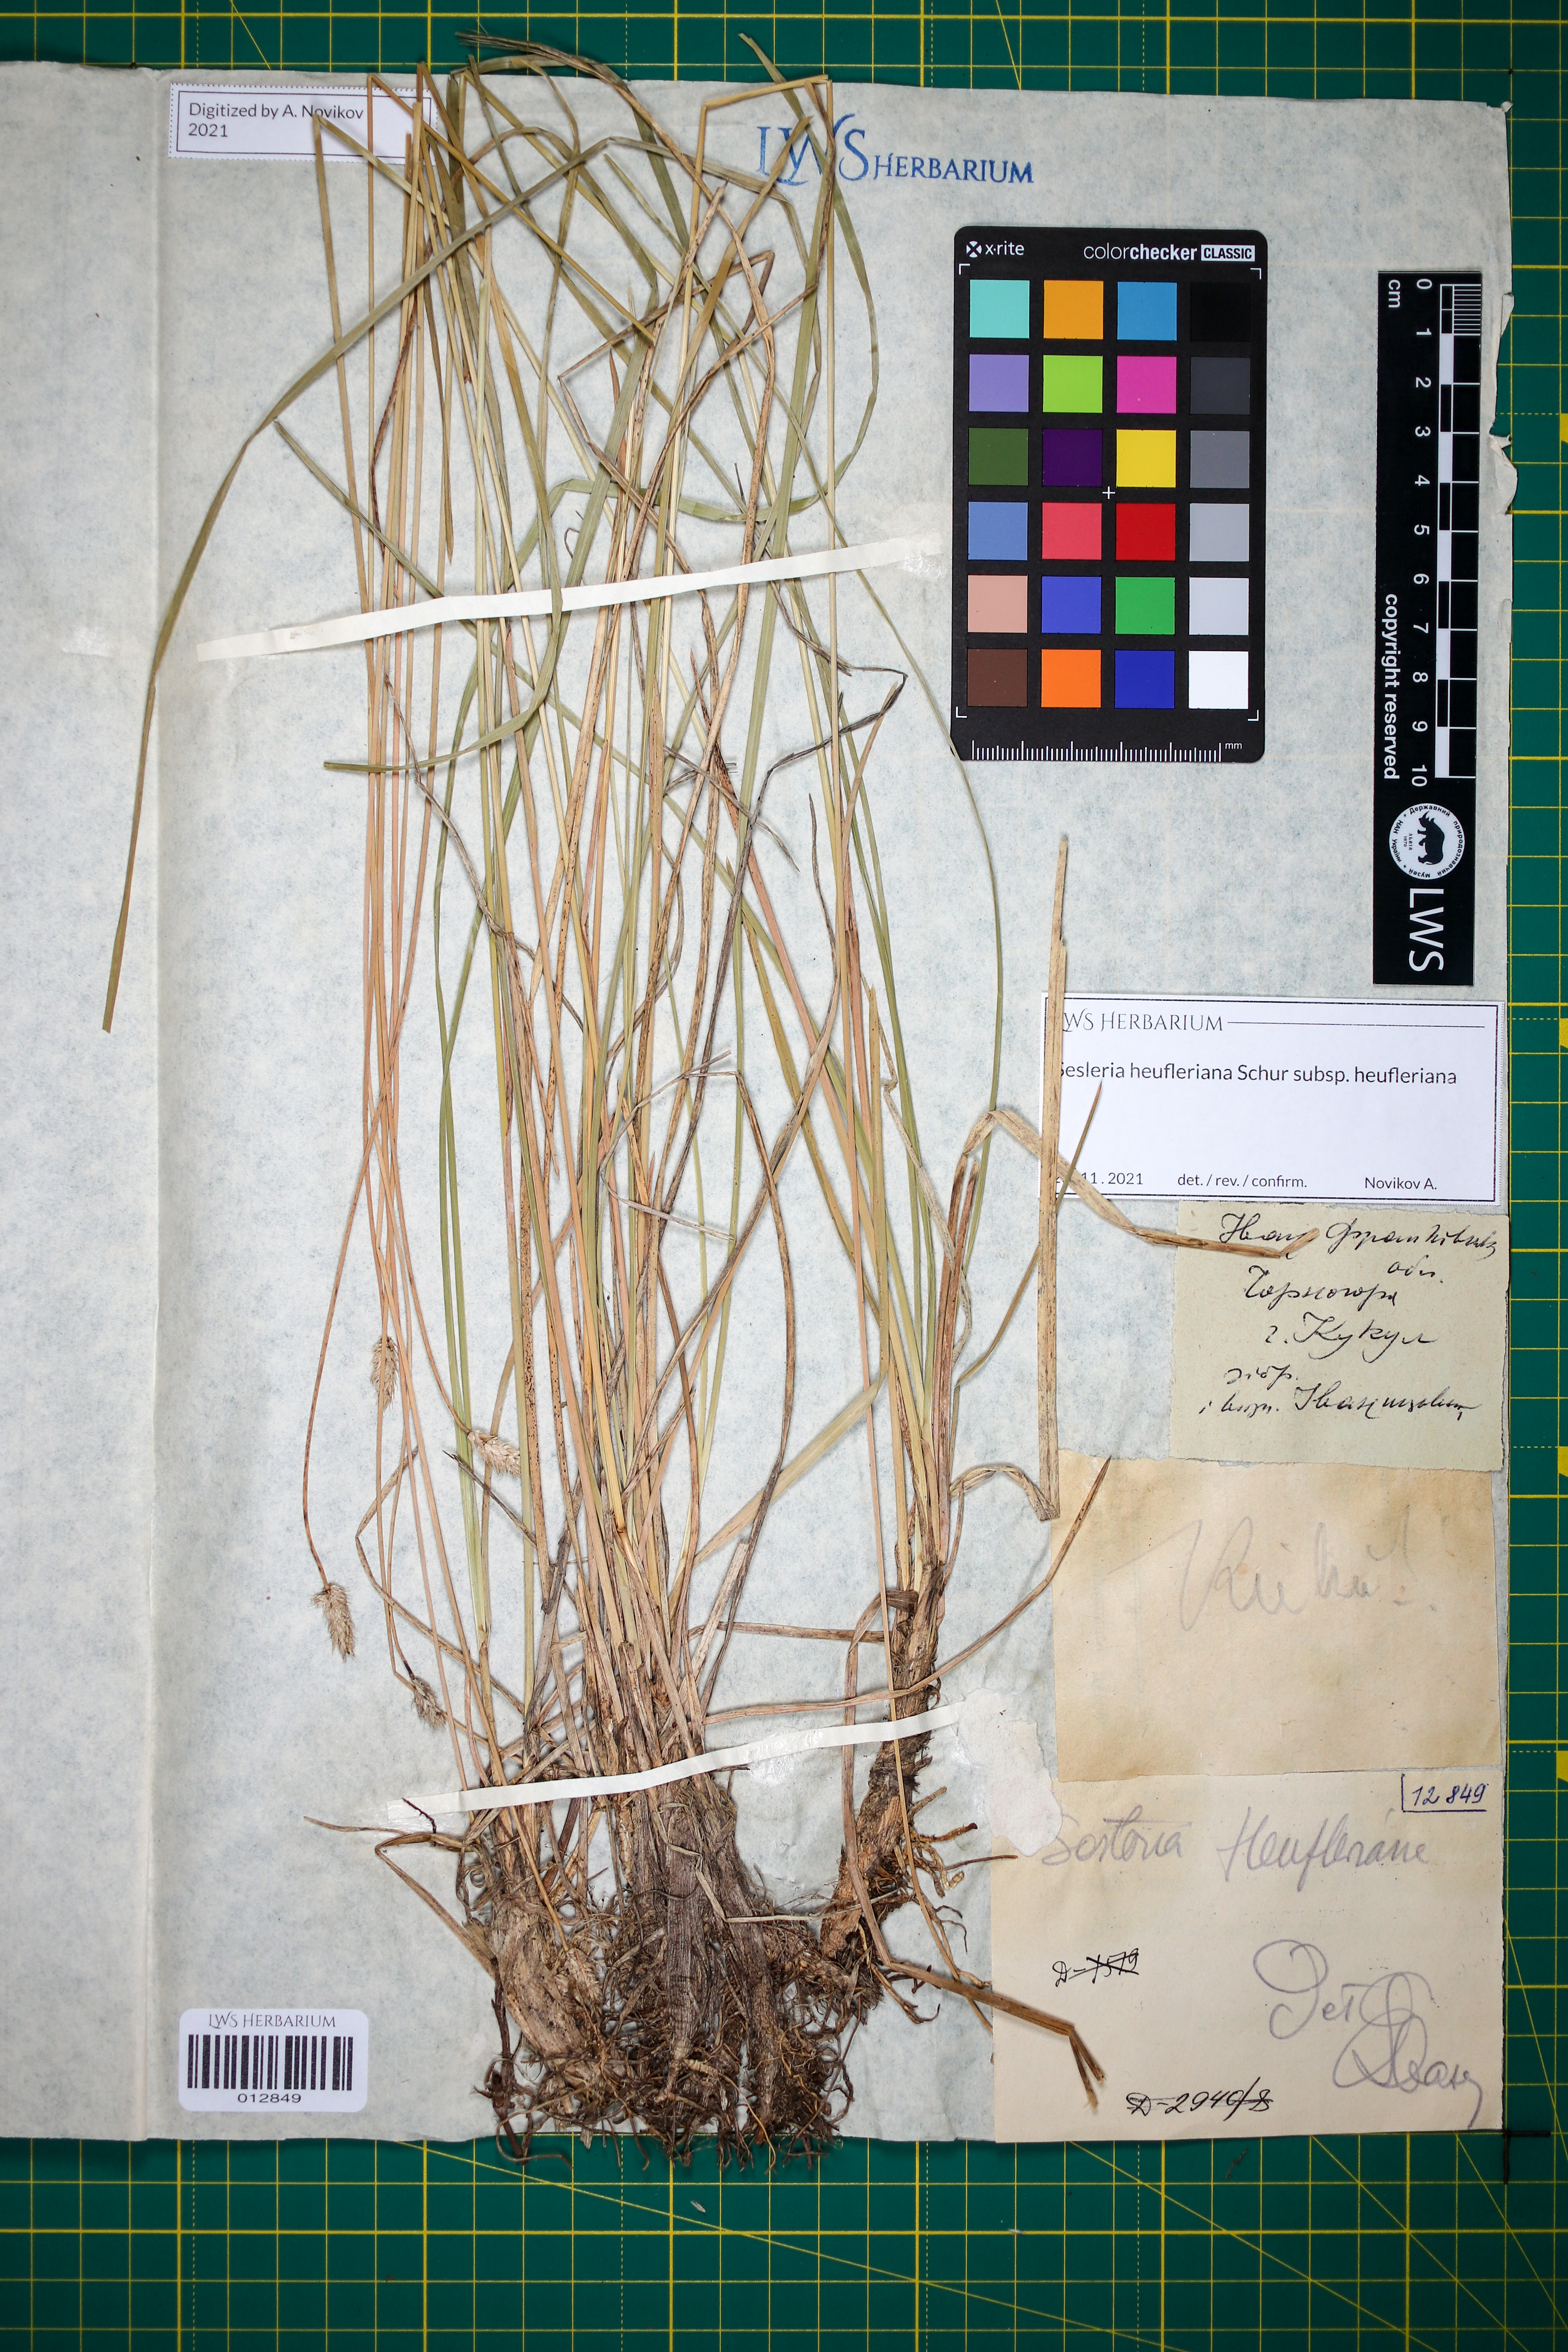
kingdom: Plantae
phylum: Tracheophyta
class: Liliopsida
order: Poales
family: Poaceae
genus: Sesleria
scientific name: Sesleria heufleriana
